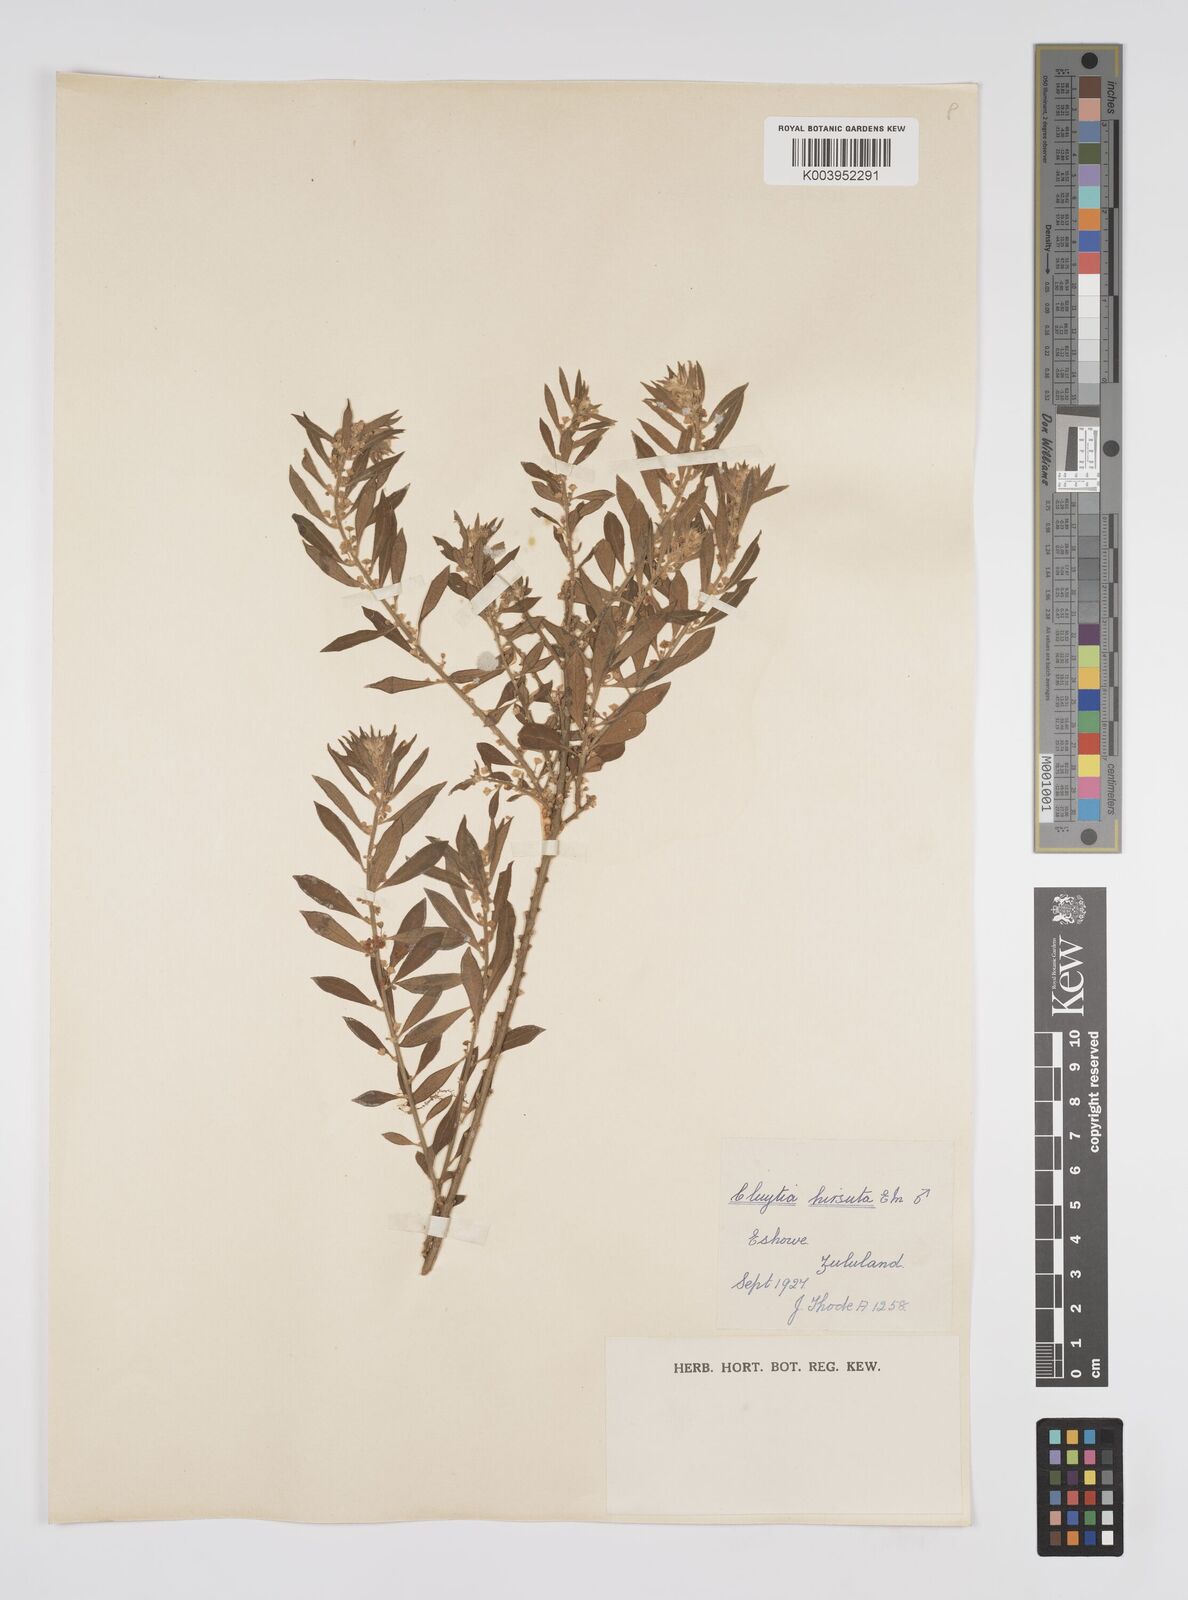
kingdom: Plantae
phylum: Tracheophyta
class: Magnoliopsida
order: Malpighiales
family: Peraceae
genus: Clutia
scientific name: Clutia hirsuta
